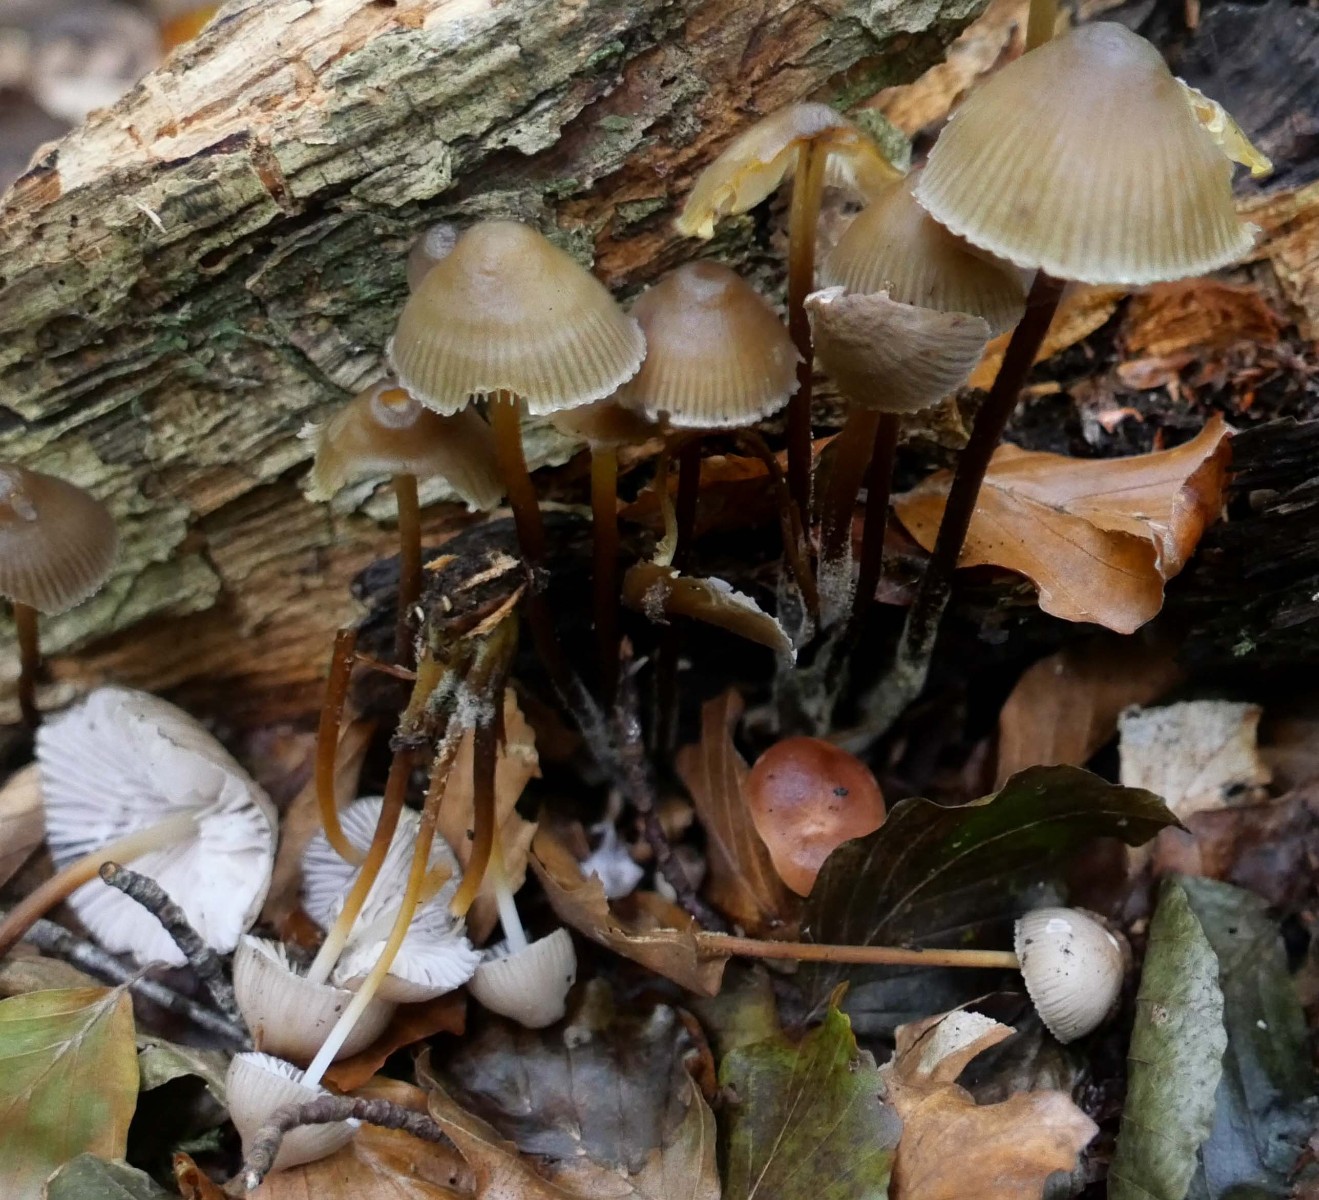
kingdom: Fungi
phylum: Basidiomycota
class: Agaricomycetes
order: Agaricales
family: Mycenaceae
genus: Mycena
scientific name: Mycena inclinata
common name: nikkende huesvamp
